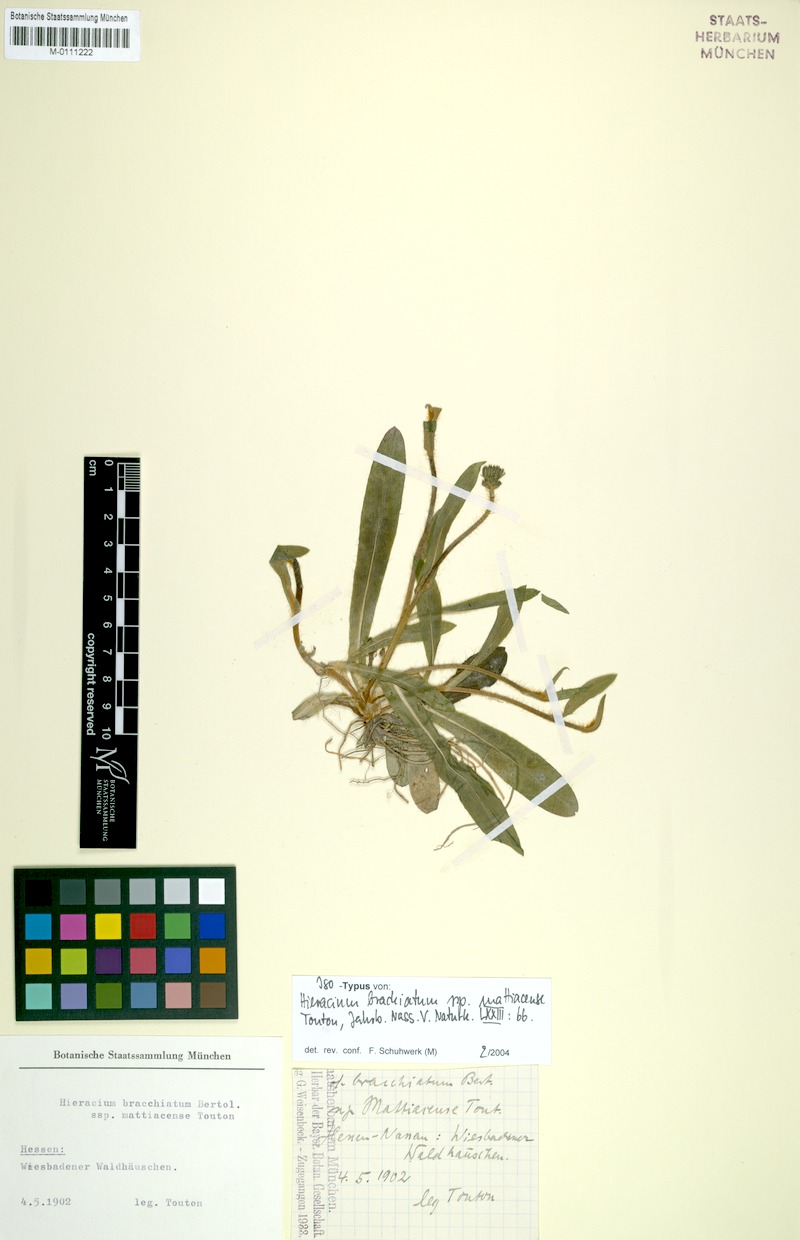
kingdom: Plantae
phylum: Tracheophyta
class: Magnoliopsida
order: Asterales
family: Asteraceae
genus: Pilosella
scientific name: Pilosella acutifolia
